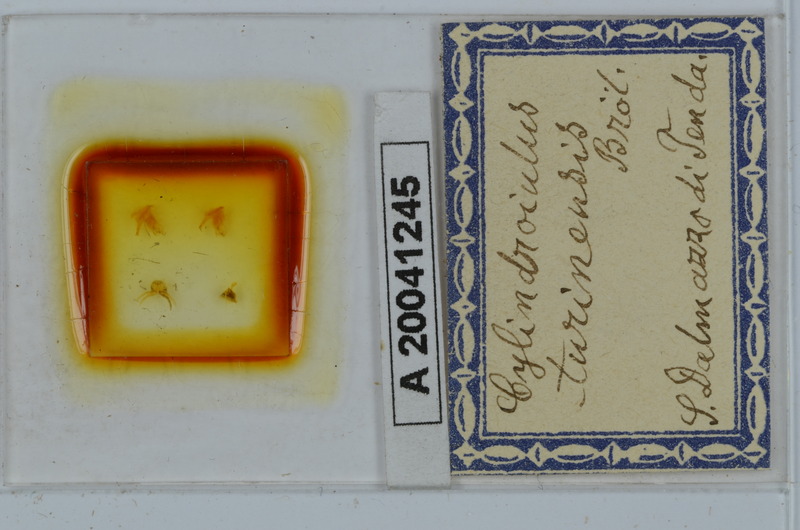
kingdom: Animalia
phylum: Arthropoda
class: Diplopoda
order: Julida
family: Julidae
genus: Cylindroiulus
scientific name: Cylindroiulus turinensis
